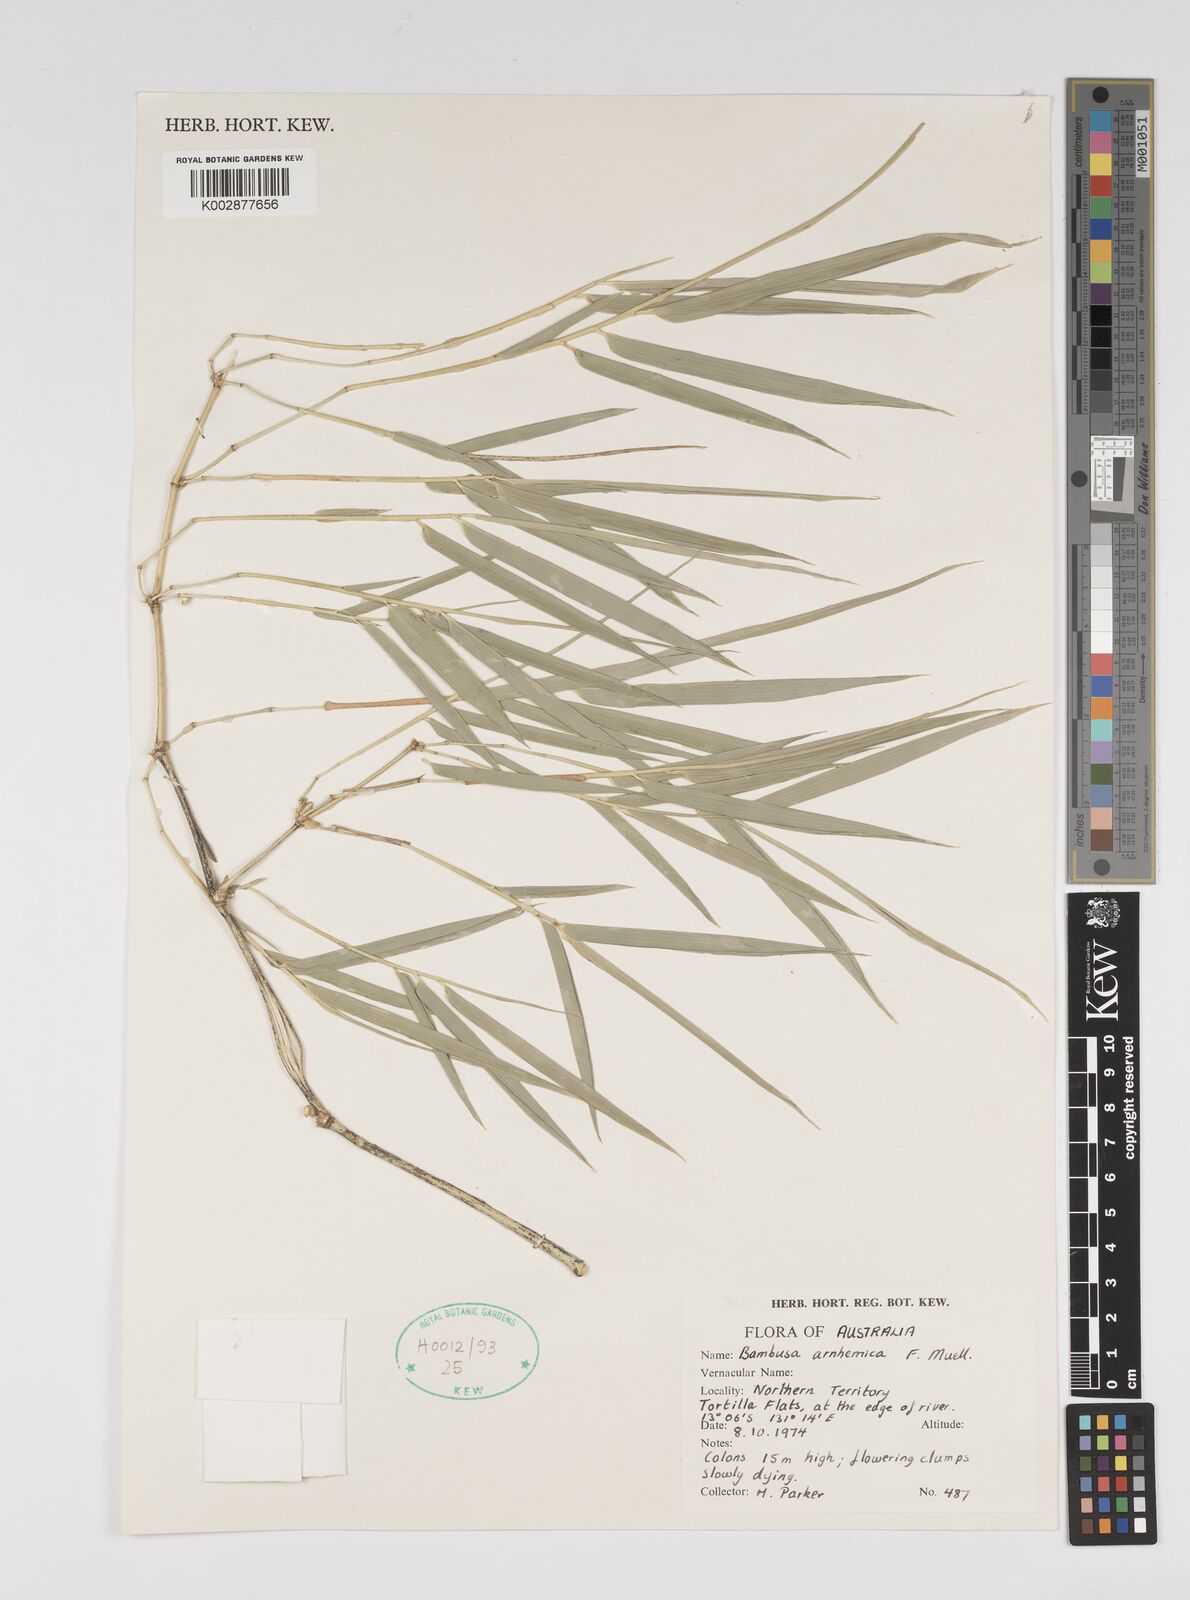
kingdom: Plantae
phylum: Tracheophyta
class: Liliopsida
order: Poales
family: Poaceae
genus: Bambusa
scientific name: Bambusa arnhemica
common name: Top-end bamboo
